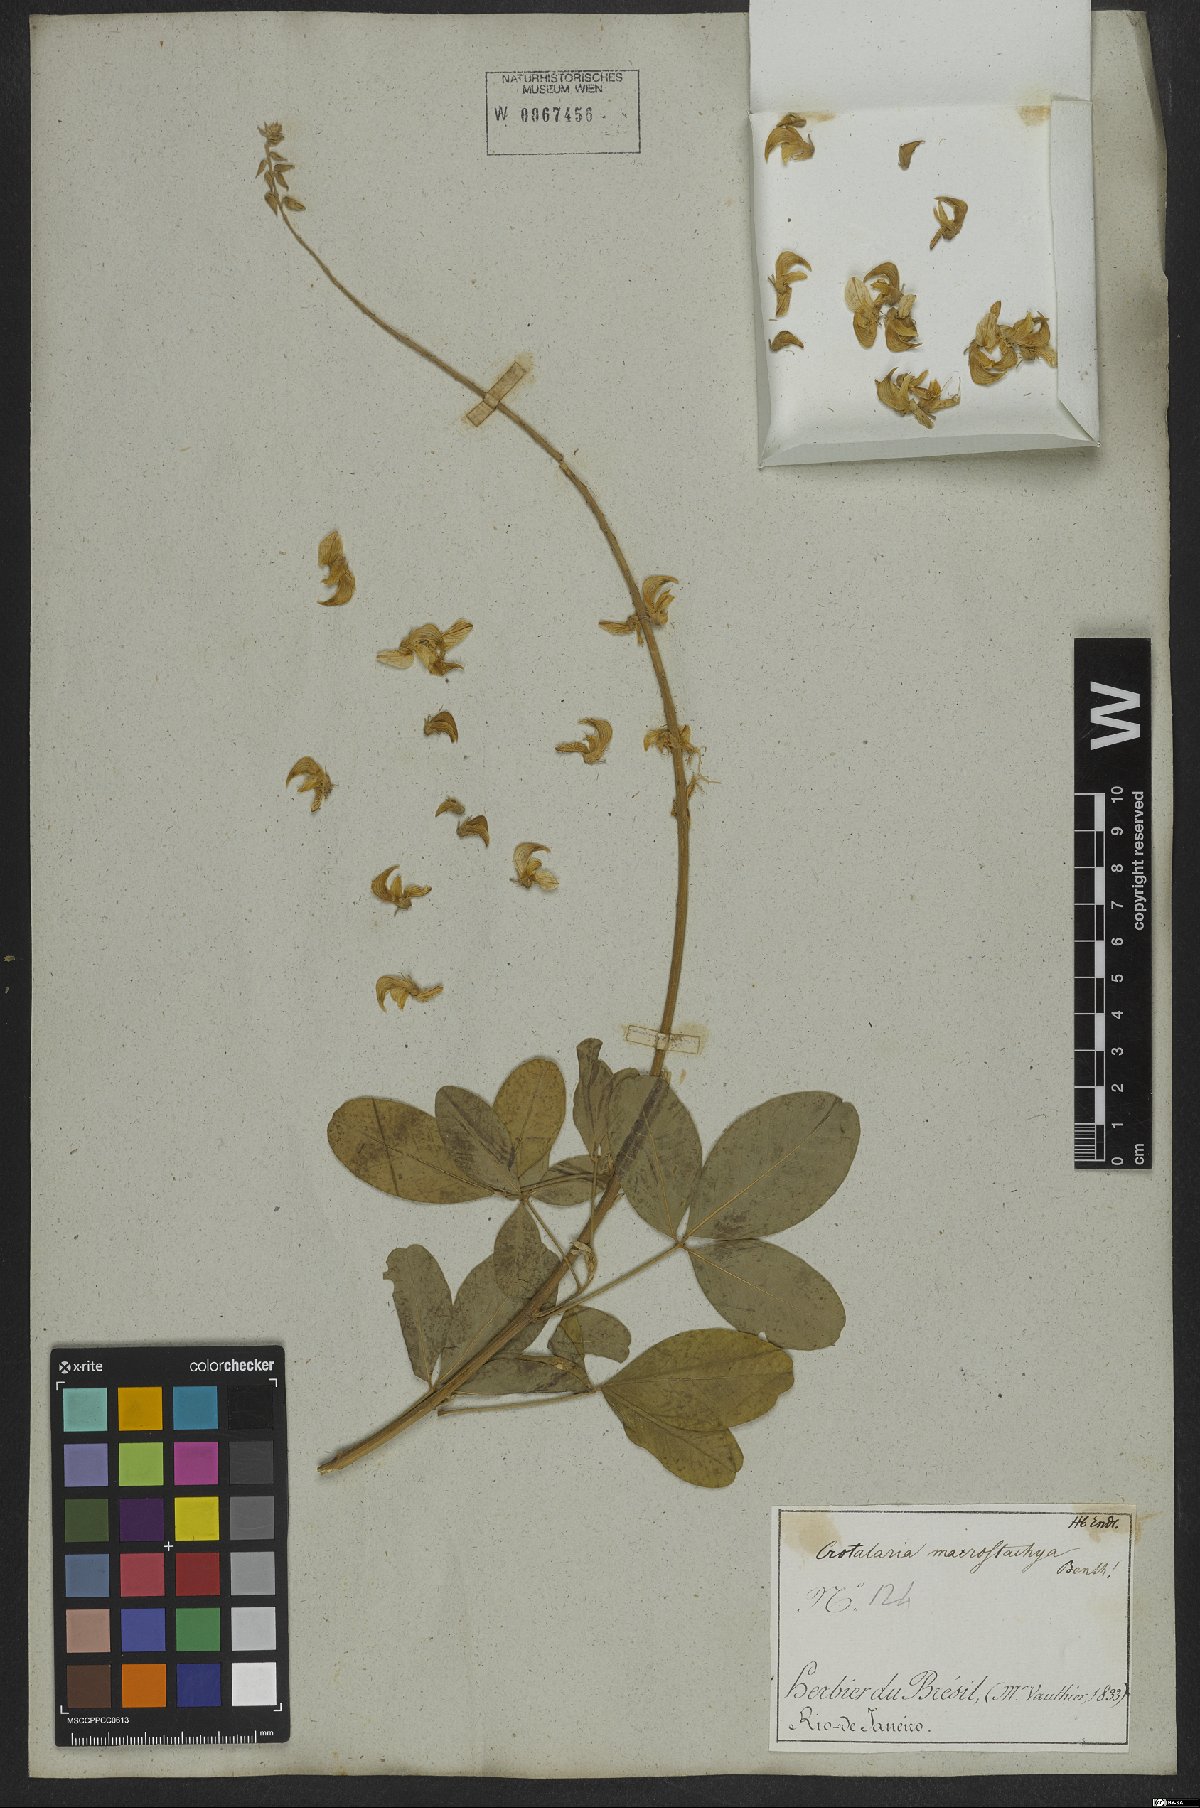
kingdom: Plantae
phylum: Tracheophyta
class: Magnoliopsida
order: Fabales
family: Fabaceae
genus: Crotalaria
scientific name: Crotalaria globifera
